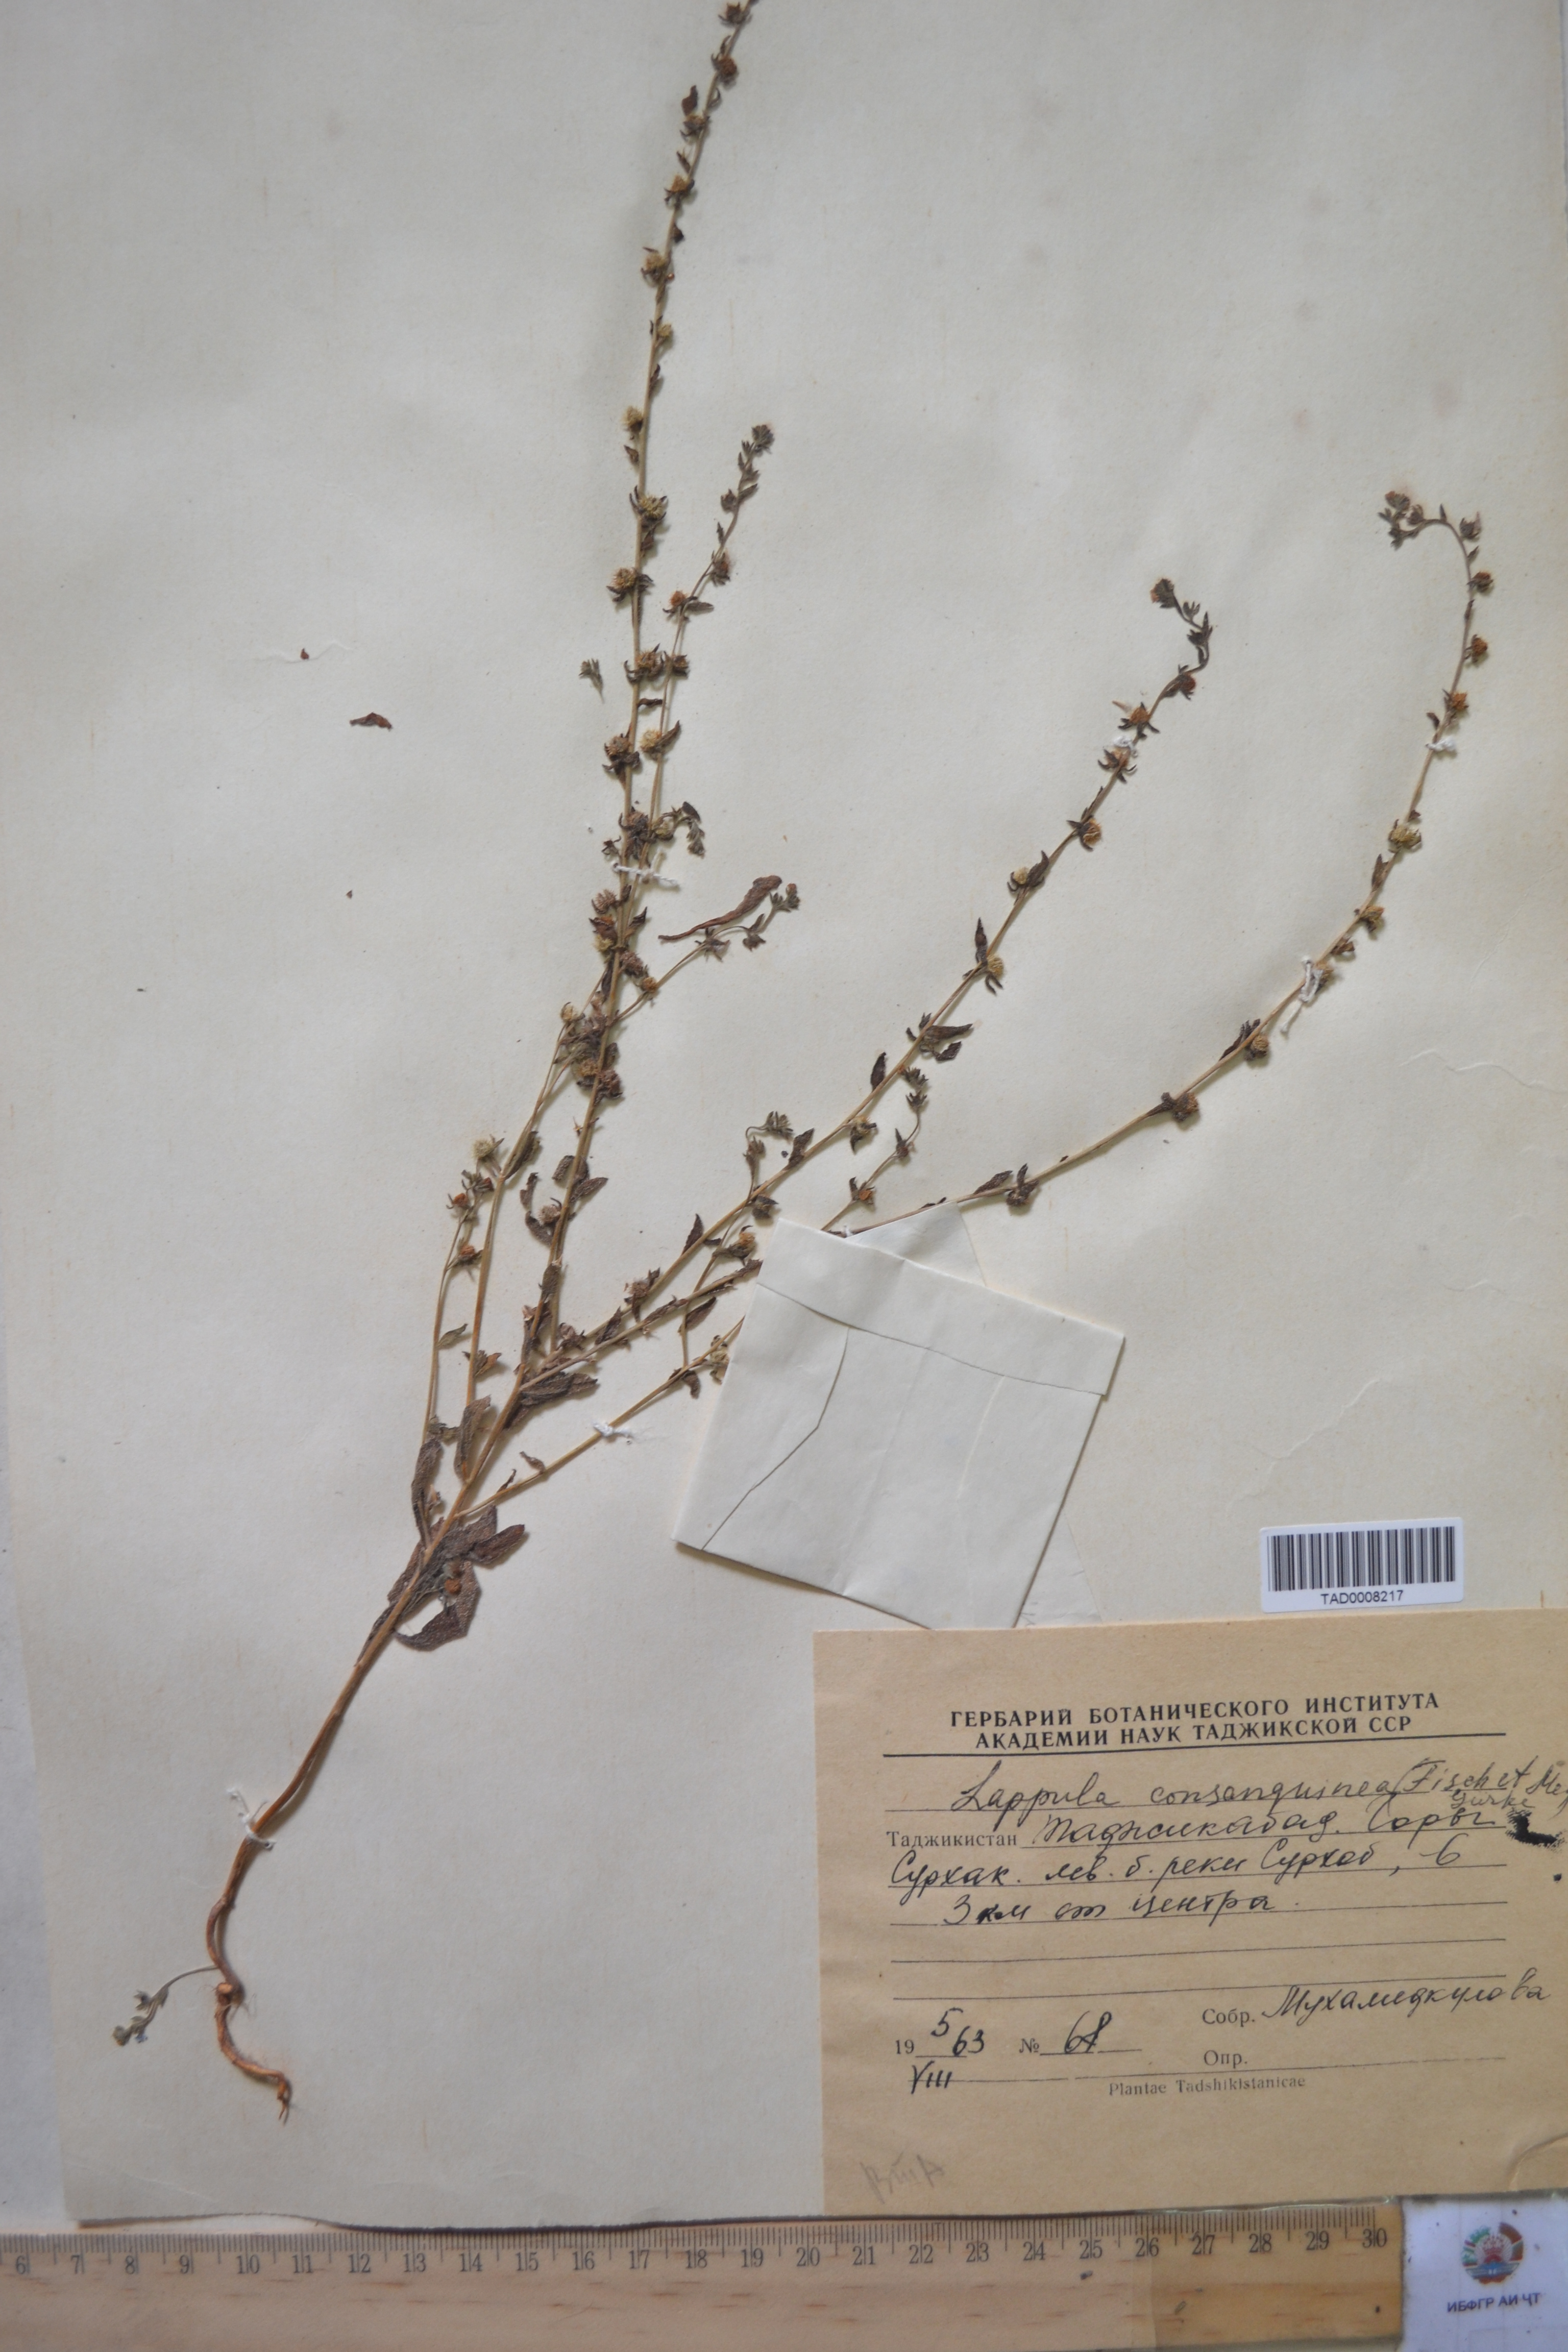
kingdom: Plantae
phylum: Tracheophyta
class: Magnoliopsida
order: Boraginales
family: Boraginaceae
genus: Lappula
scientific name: Lappula squarrosa
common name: European stickseed
